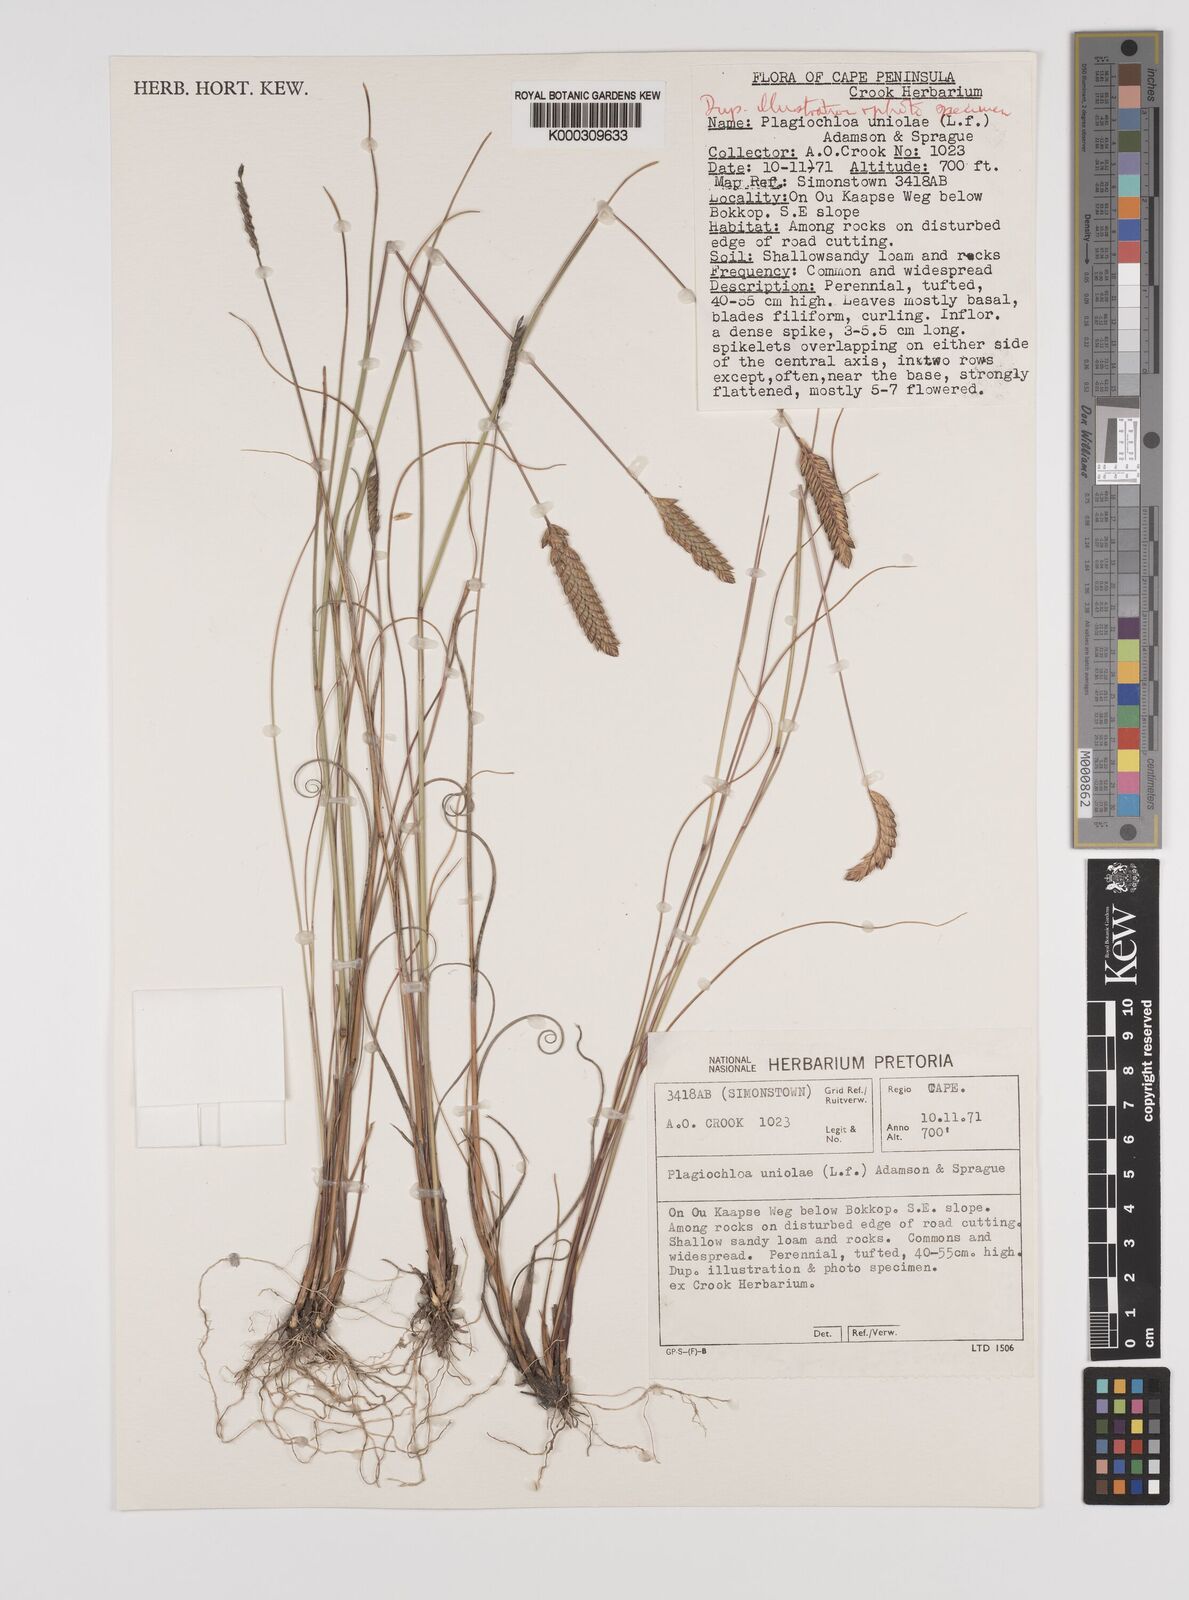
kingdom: Plantae
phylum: Tracheophyta
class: Liliopsida
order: Poales
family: Poaceae
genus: Tribolium
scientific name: Tribolium uniolae
